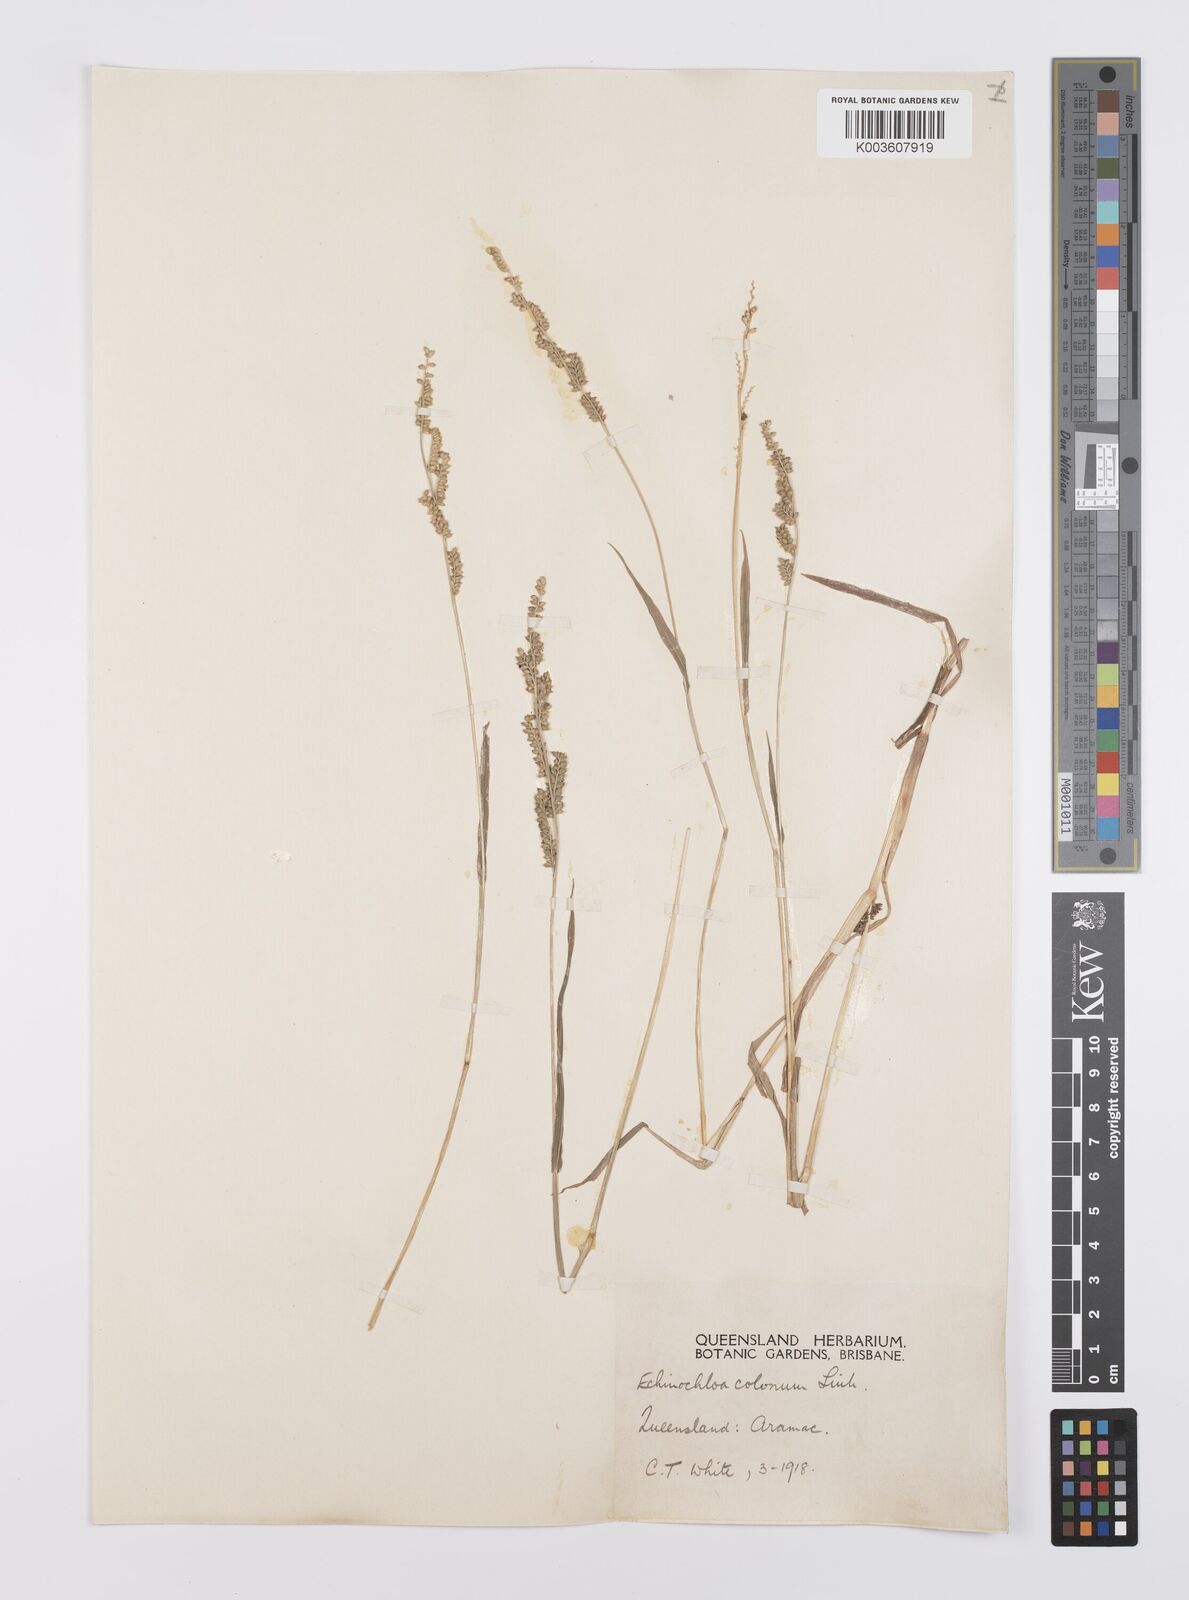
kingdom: Plantae
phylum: Tracheophyta
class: Liliopsida
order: Poales
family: Poaceae
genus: Echinochloa
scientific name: Echinochloa colonum
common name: Jungle rice
